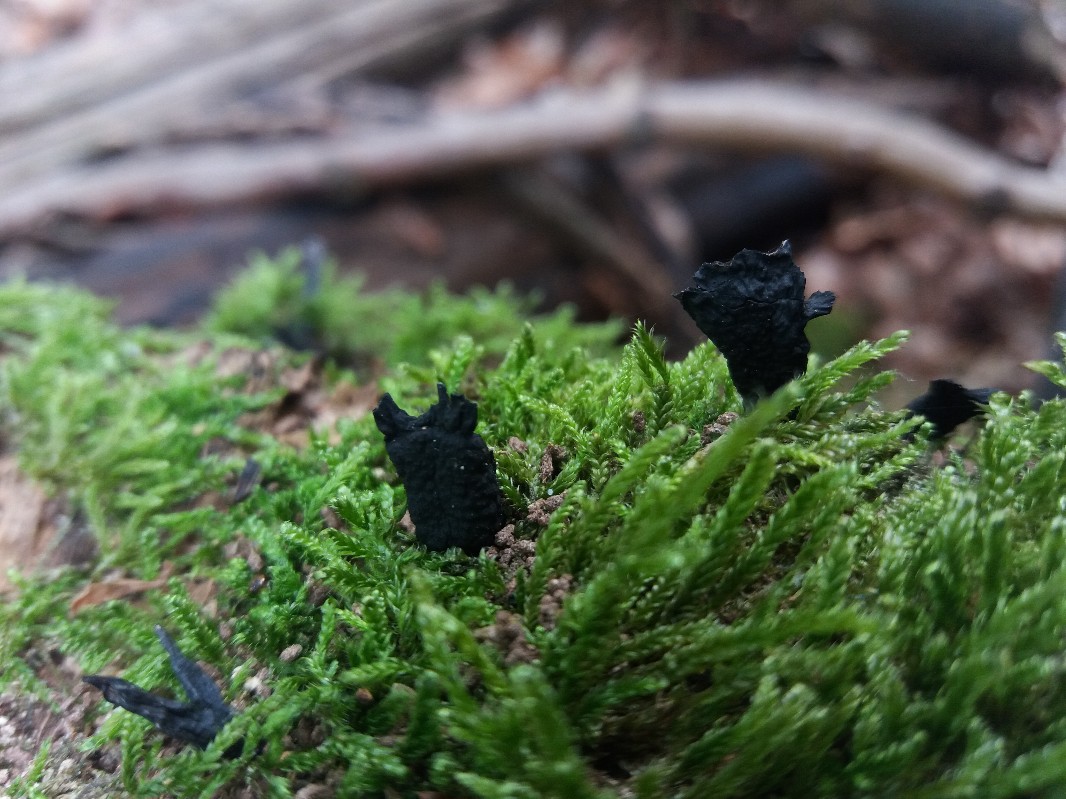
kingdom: Fungi
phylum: Ascomycota
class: Sordariomycetes
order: Xylariales
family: Xylariaceae
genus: Xylaria
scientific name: Xylaria hypoxylon
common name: grenet stødsvamp
